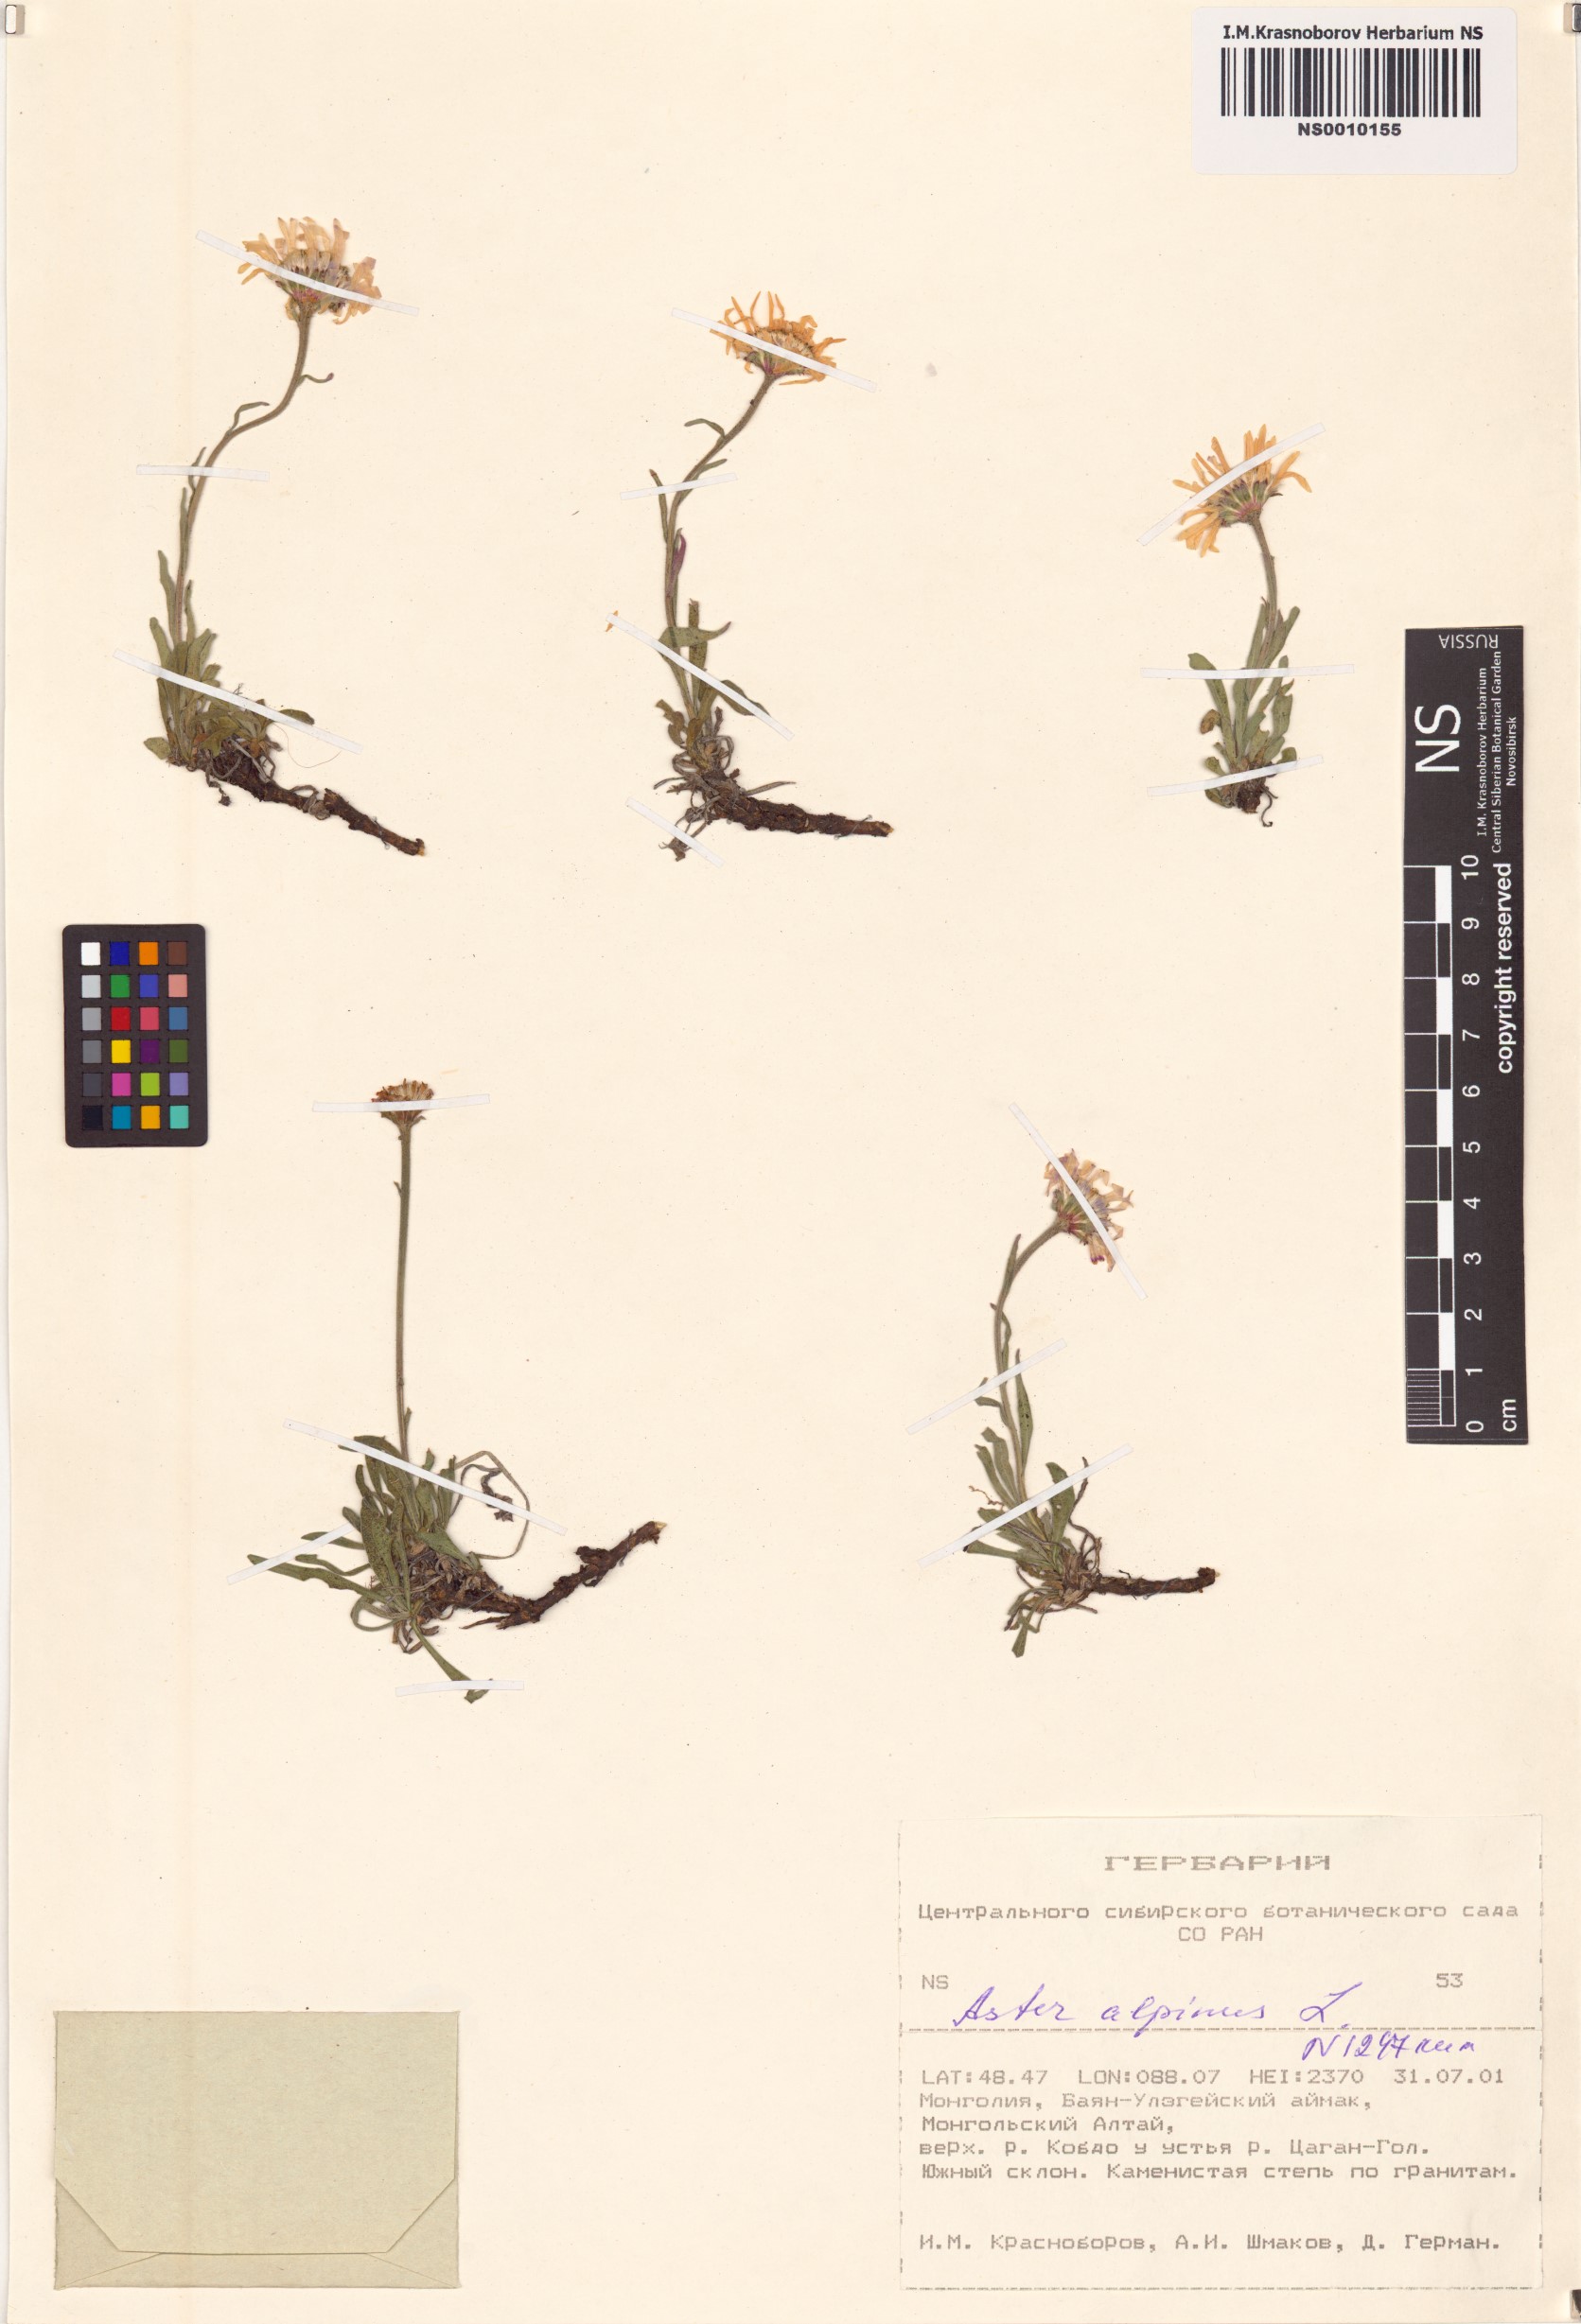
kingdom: Plantae
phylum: Tracheophyta
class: Magnoliopsida
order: Asterales
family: Asteraceae
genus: Aster
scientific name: Aster alpinus
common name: Alpine aster
